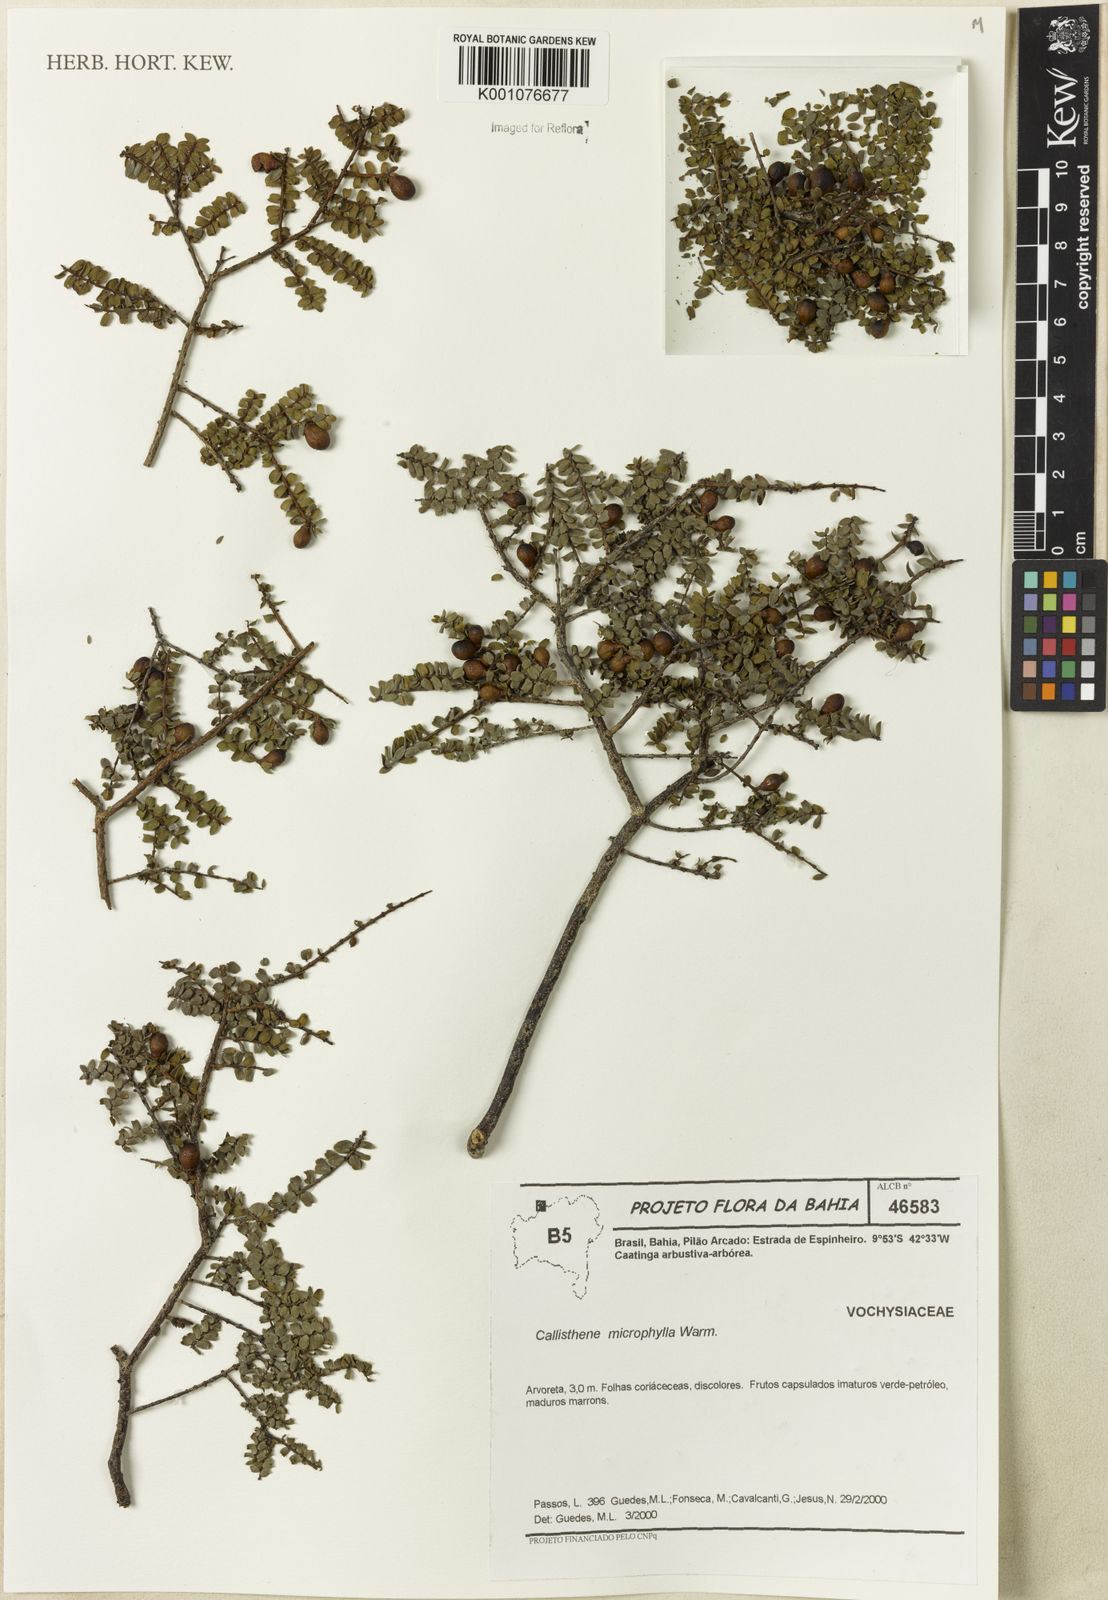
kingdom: Plantae
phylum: Tracheophyta
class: Magnoliopsida
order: Myrtales
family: Vochysiaceae
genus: Callisthene
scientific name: Callisthene microphylla
